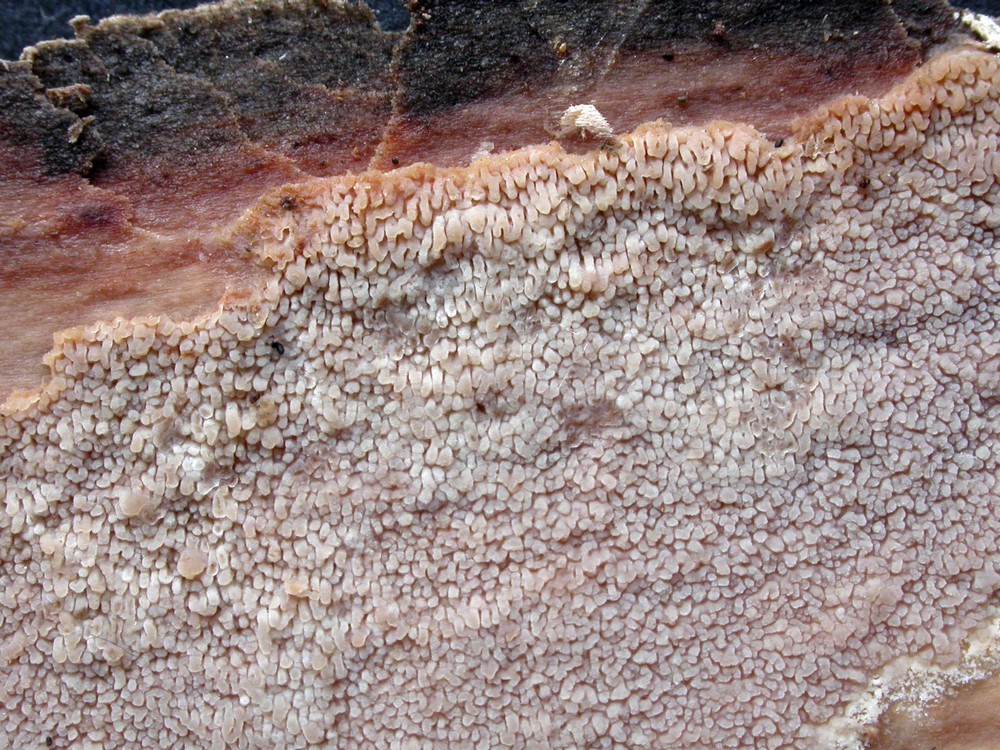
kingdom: Fungi
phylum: Basidiomycota
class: Agaricomycetes
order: Polyporales
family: Meruliaceae
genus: Phlebia
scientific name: Phlebia rufa
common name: ege-åresvamp
